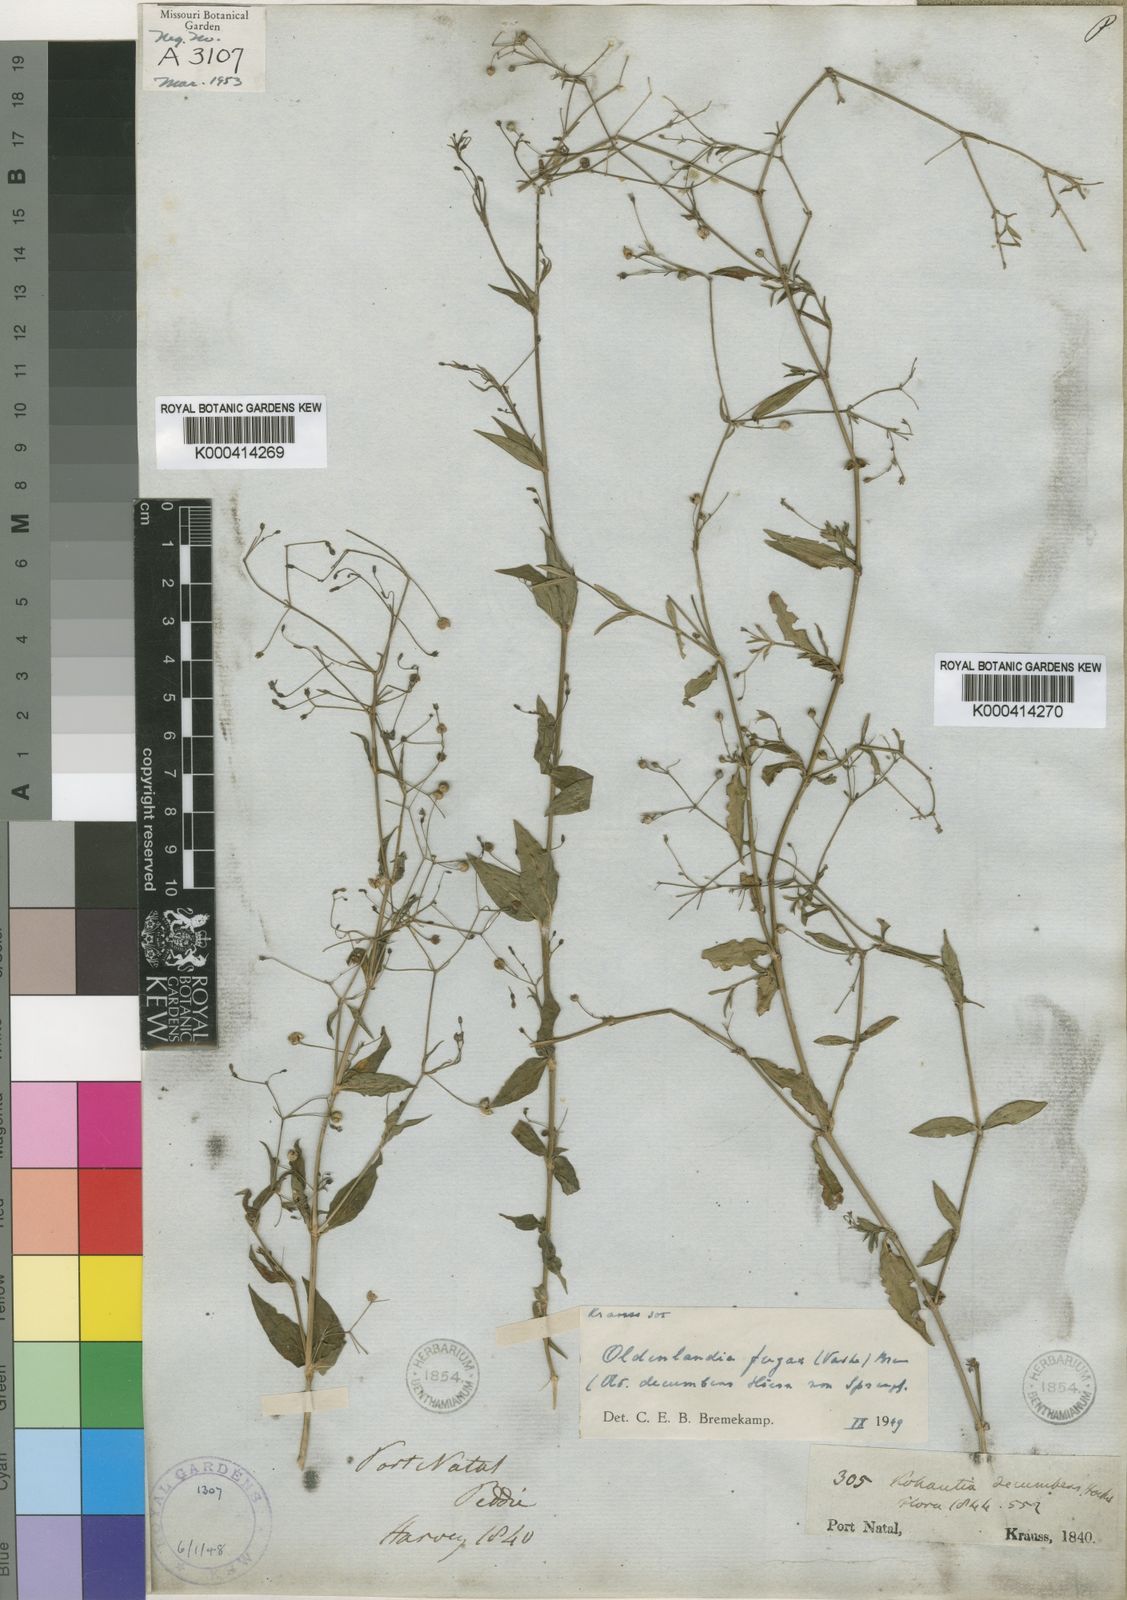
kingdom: Plantae
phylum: Tracheophyta
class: Magnoliopsida
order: Gentianales
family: Rubiaceae
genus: Oldenlandia
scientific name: Oldenlandia affinis
